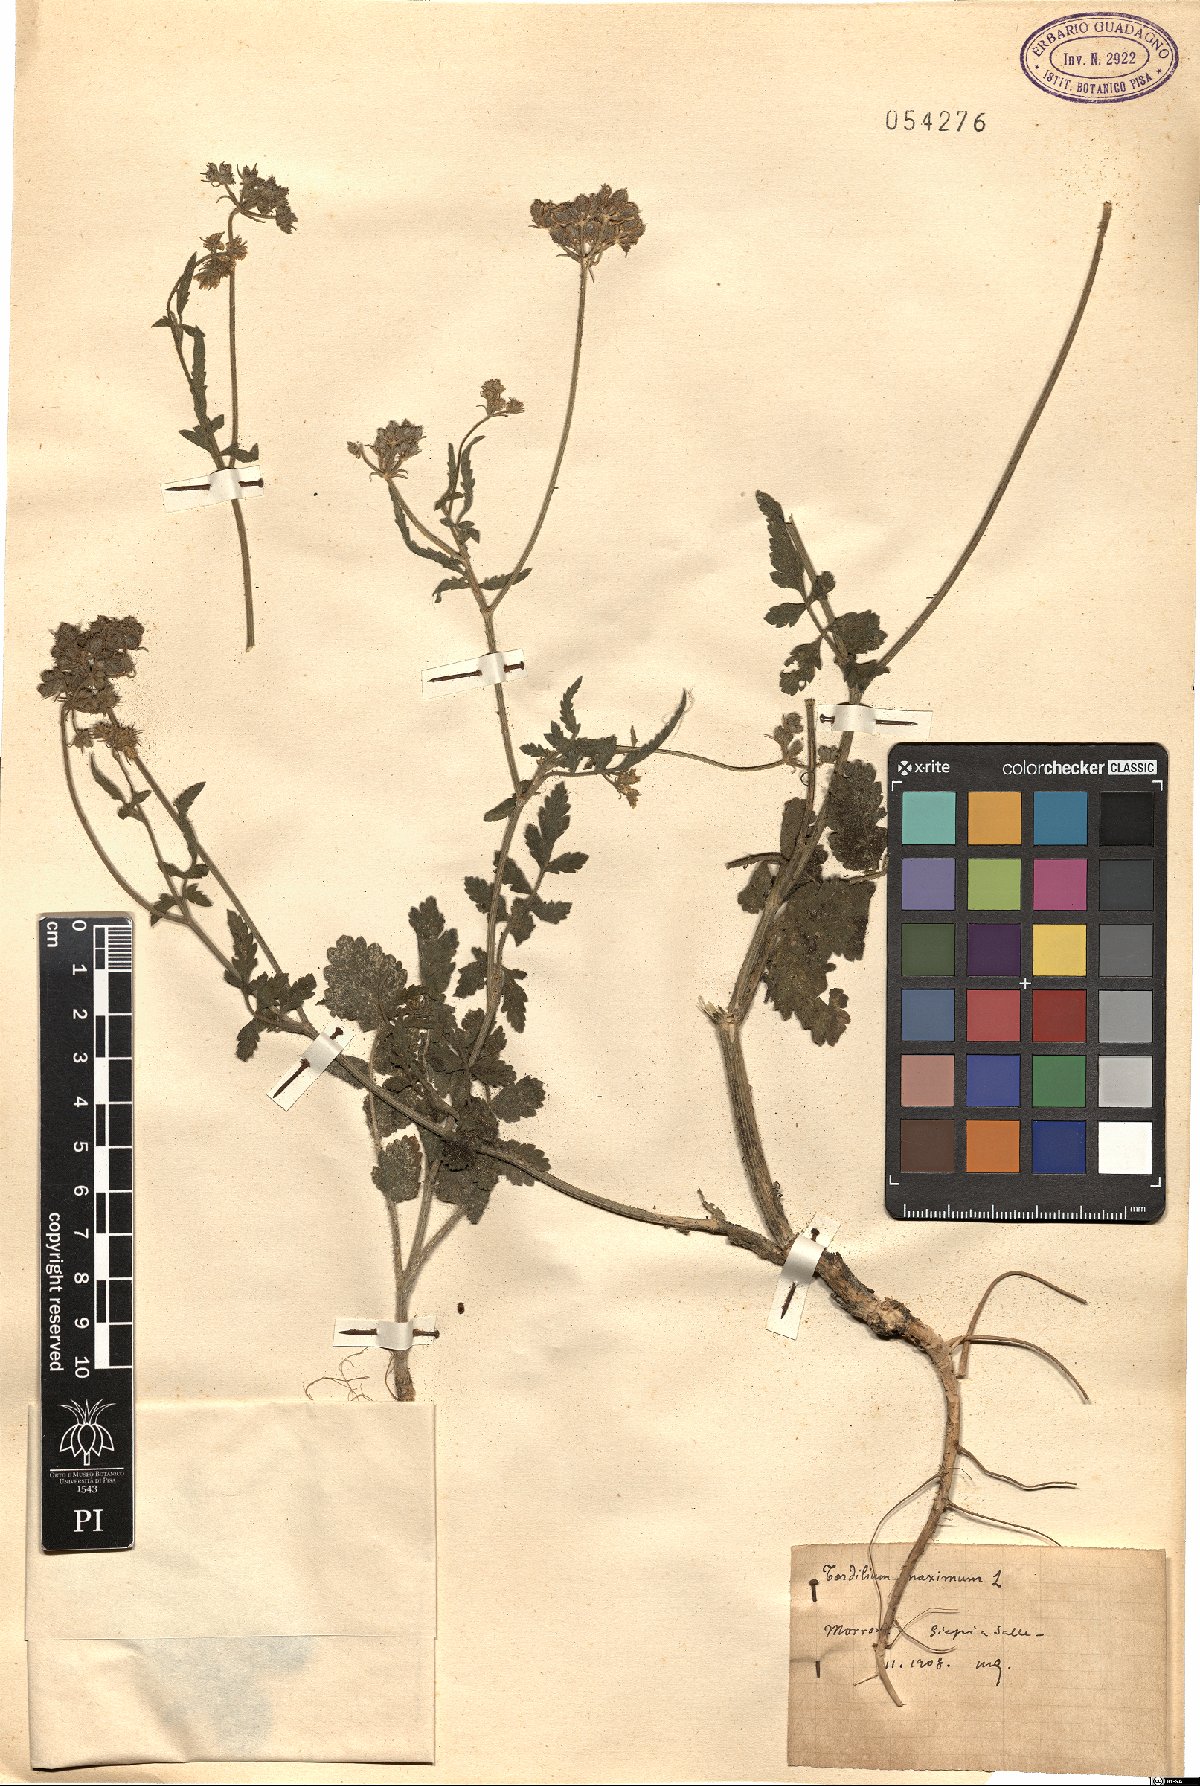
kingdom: Plantae
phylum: Tracheophyta
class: Magnoliopsida
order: Apiales
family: Apiaceae
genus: Tordylium
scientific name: Tordylium maximum
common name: Hartwort
